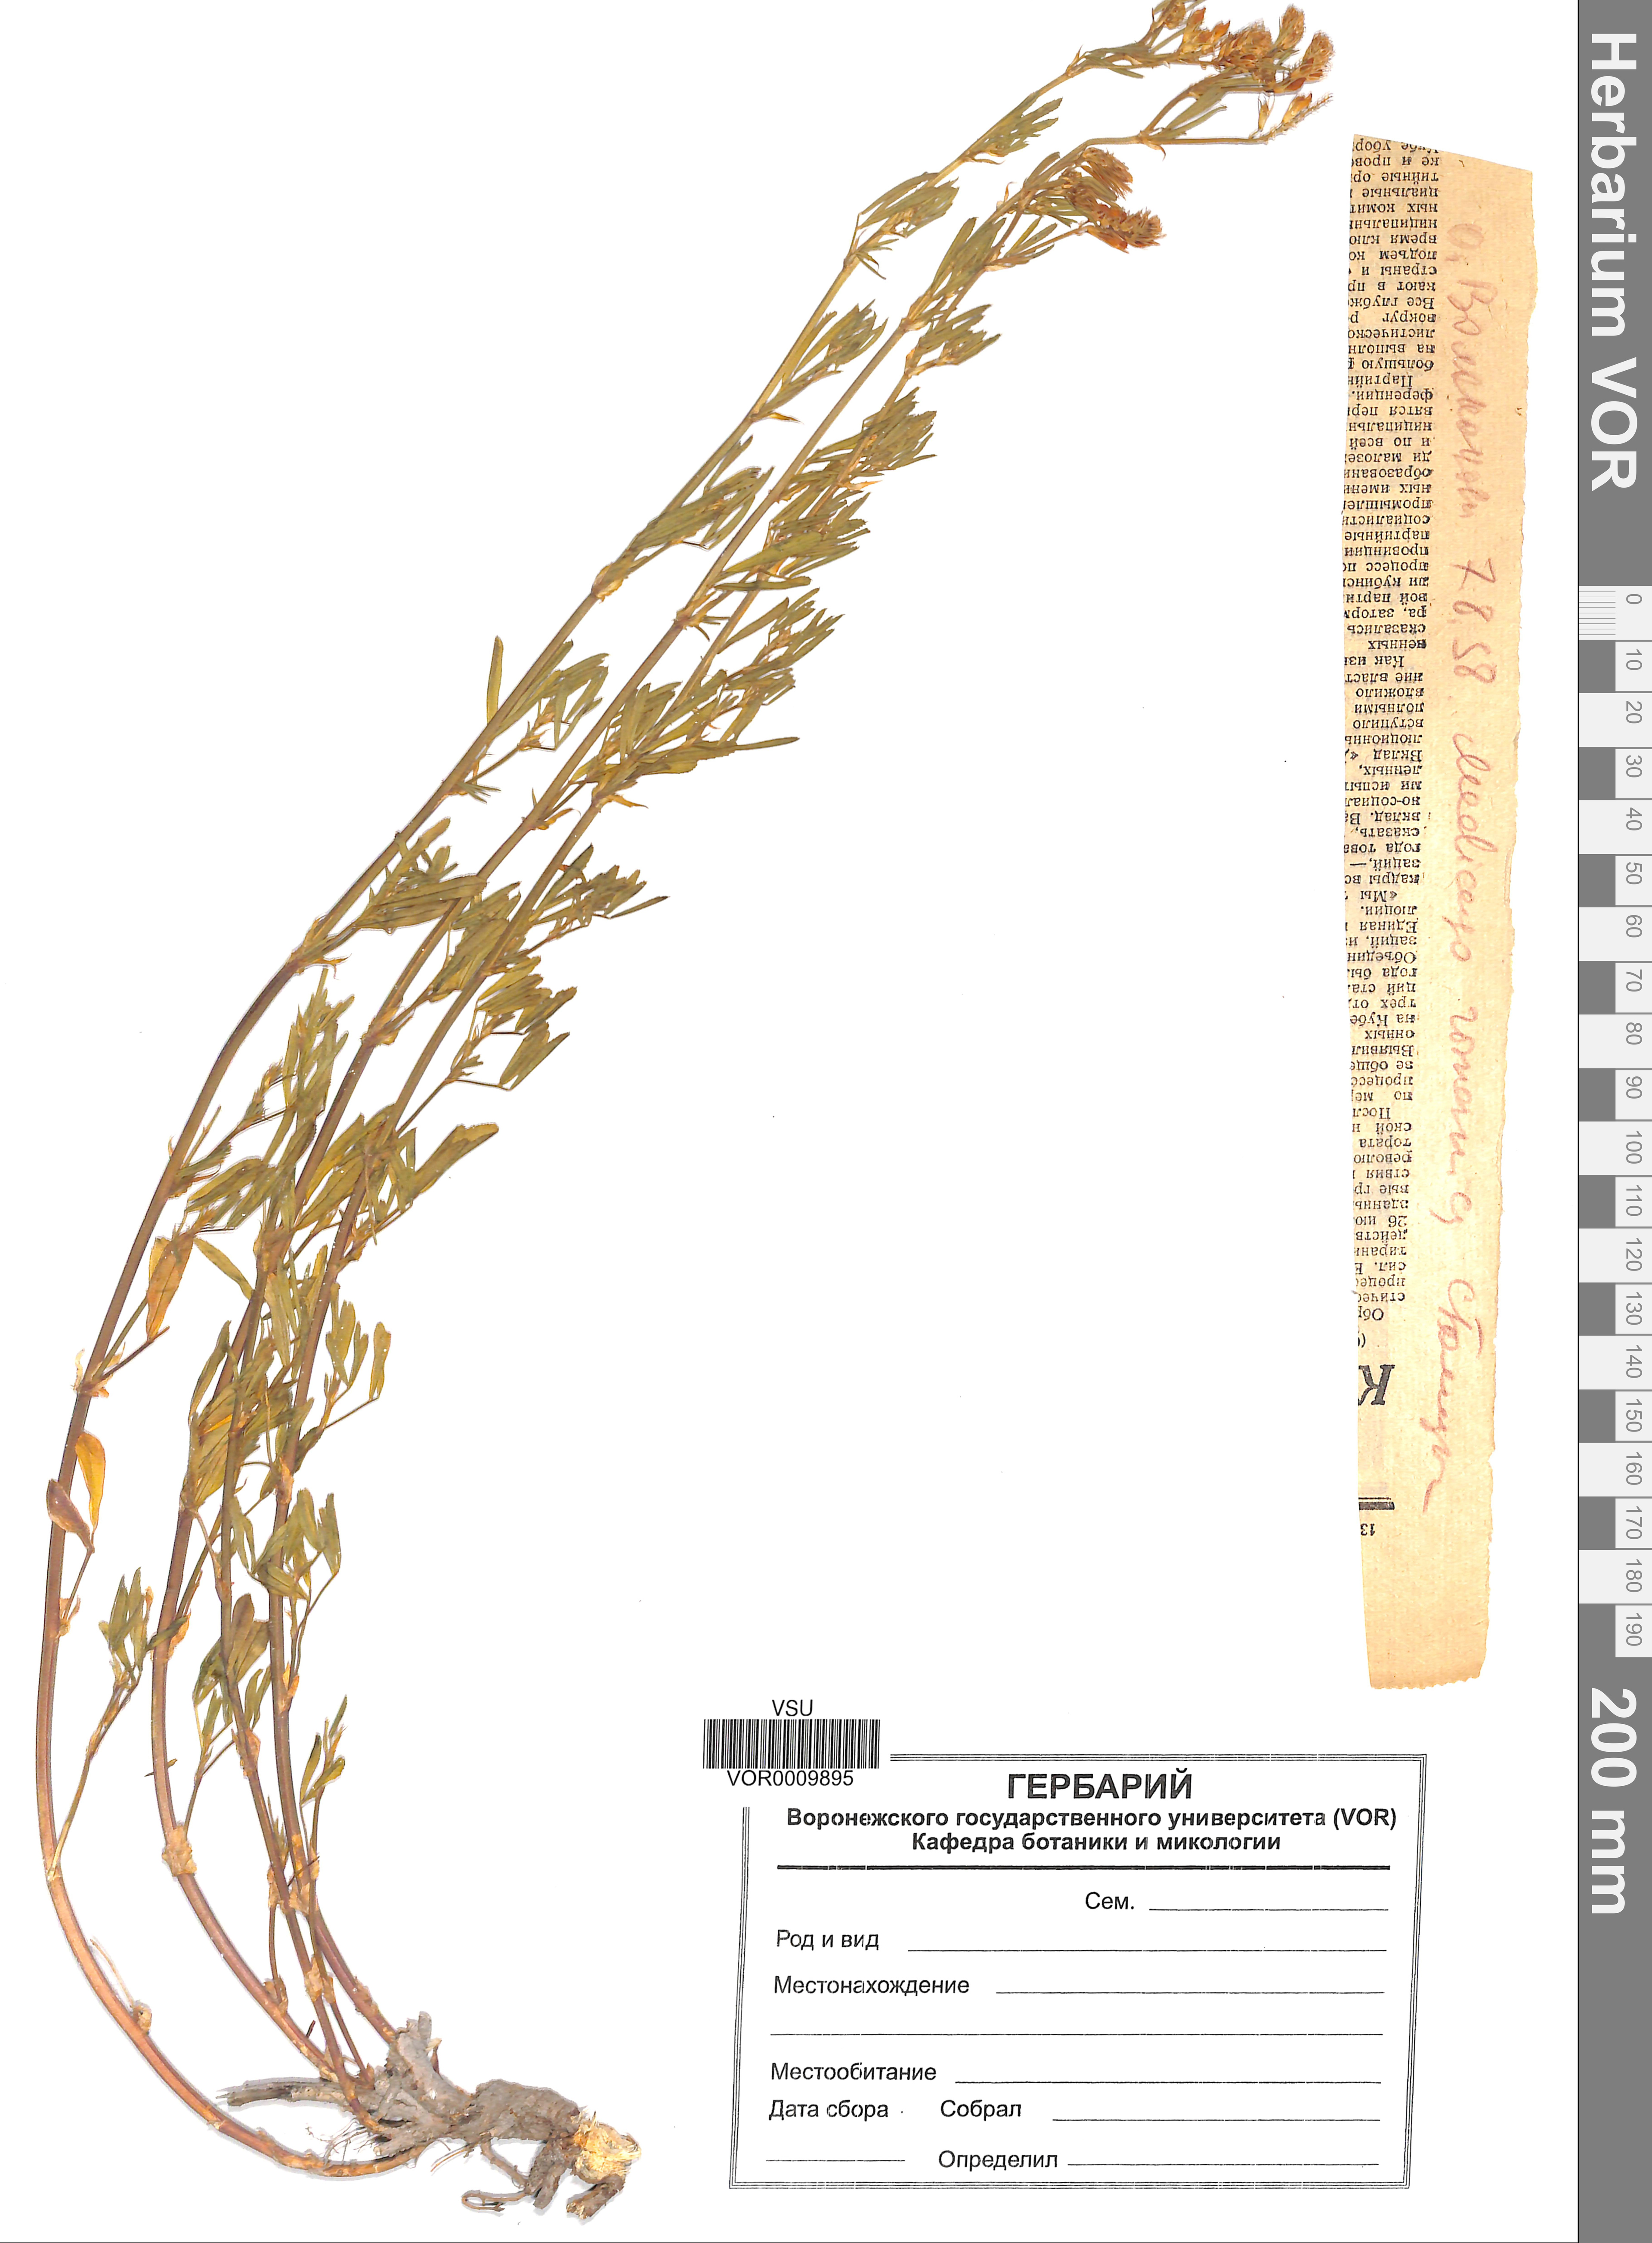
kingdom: Plantae
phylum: Tracheophyta
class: Magnoliopsida
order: Fabales
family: Fabaceae
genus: Medicago
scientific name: Medicago falcata
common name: Sickle medick
